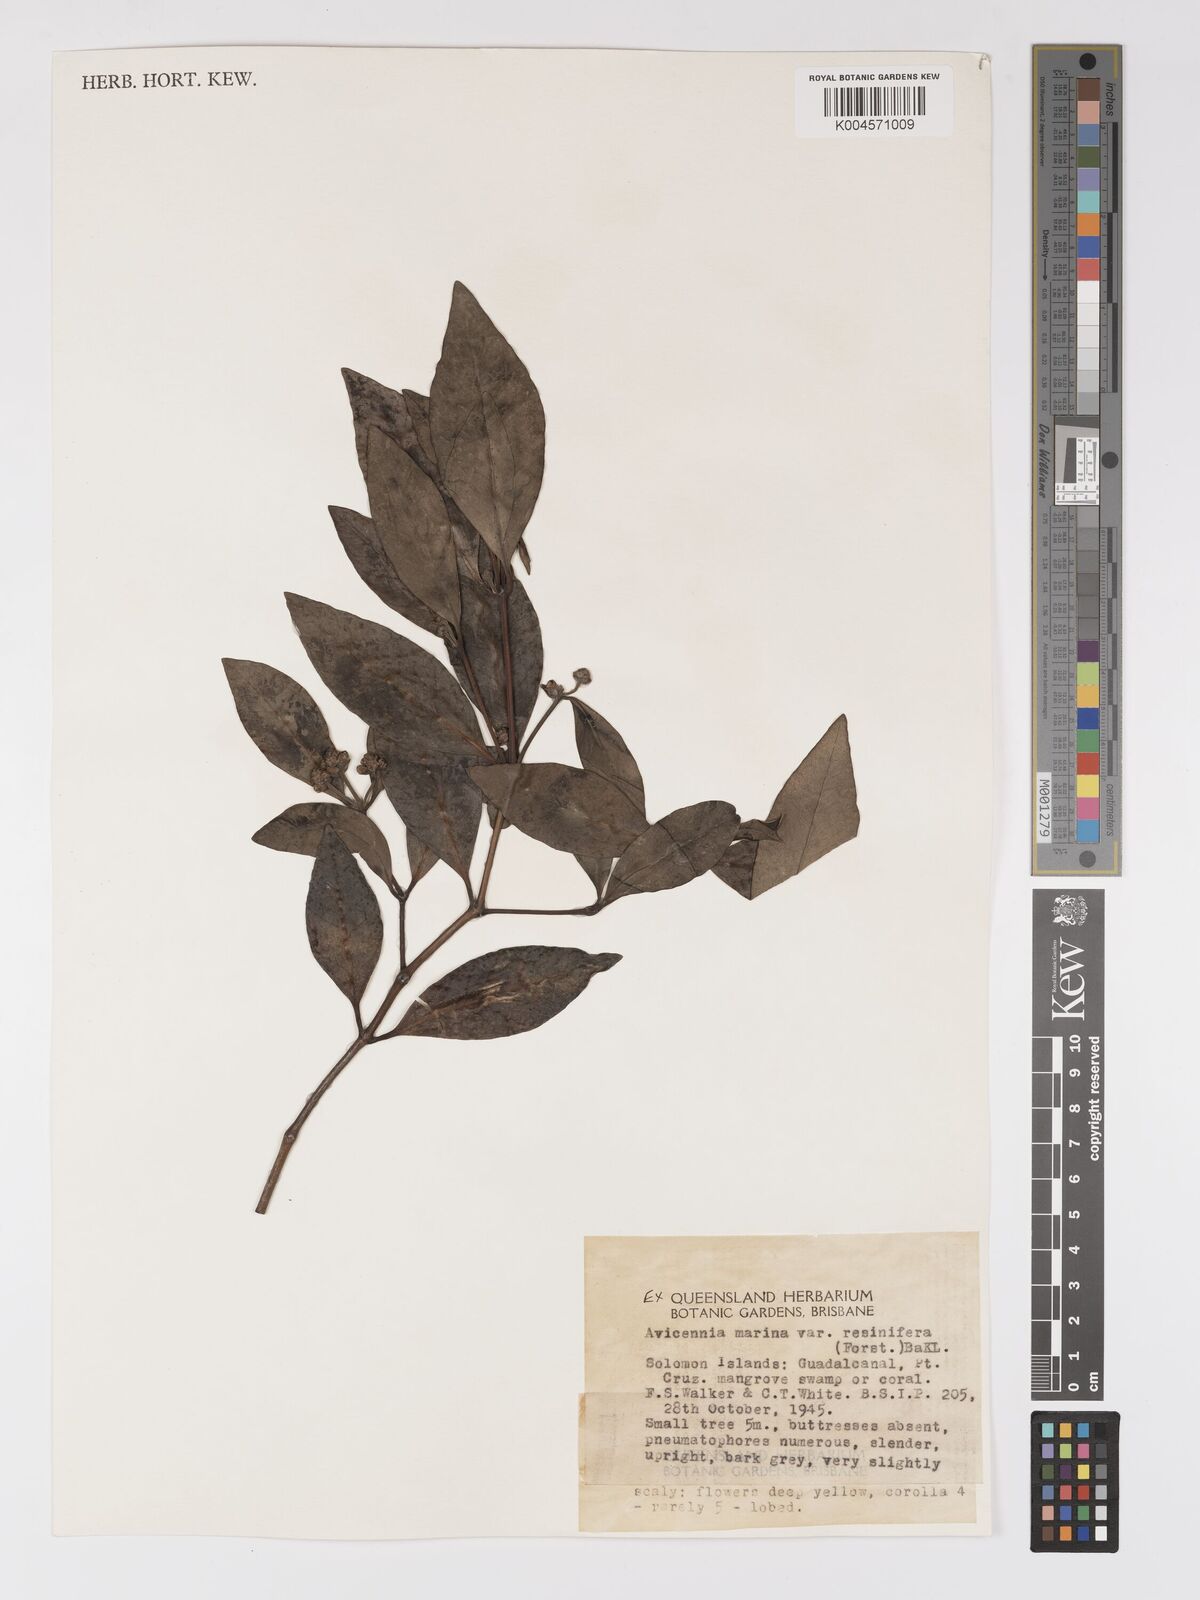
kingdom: Plantae
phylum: Tracheophyta
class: Magnoliopsida
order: Lamiales
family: Acanthaceae
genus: Avicennia
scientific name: Avicennia marina
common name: Gray mangrove
